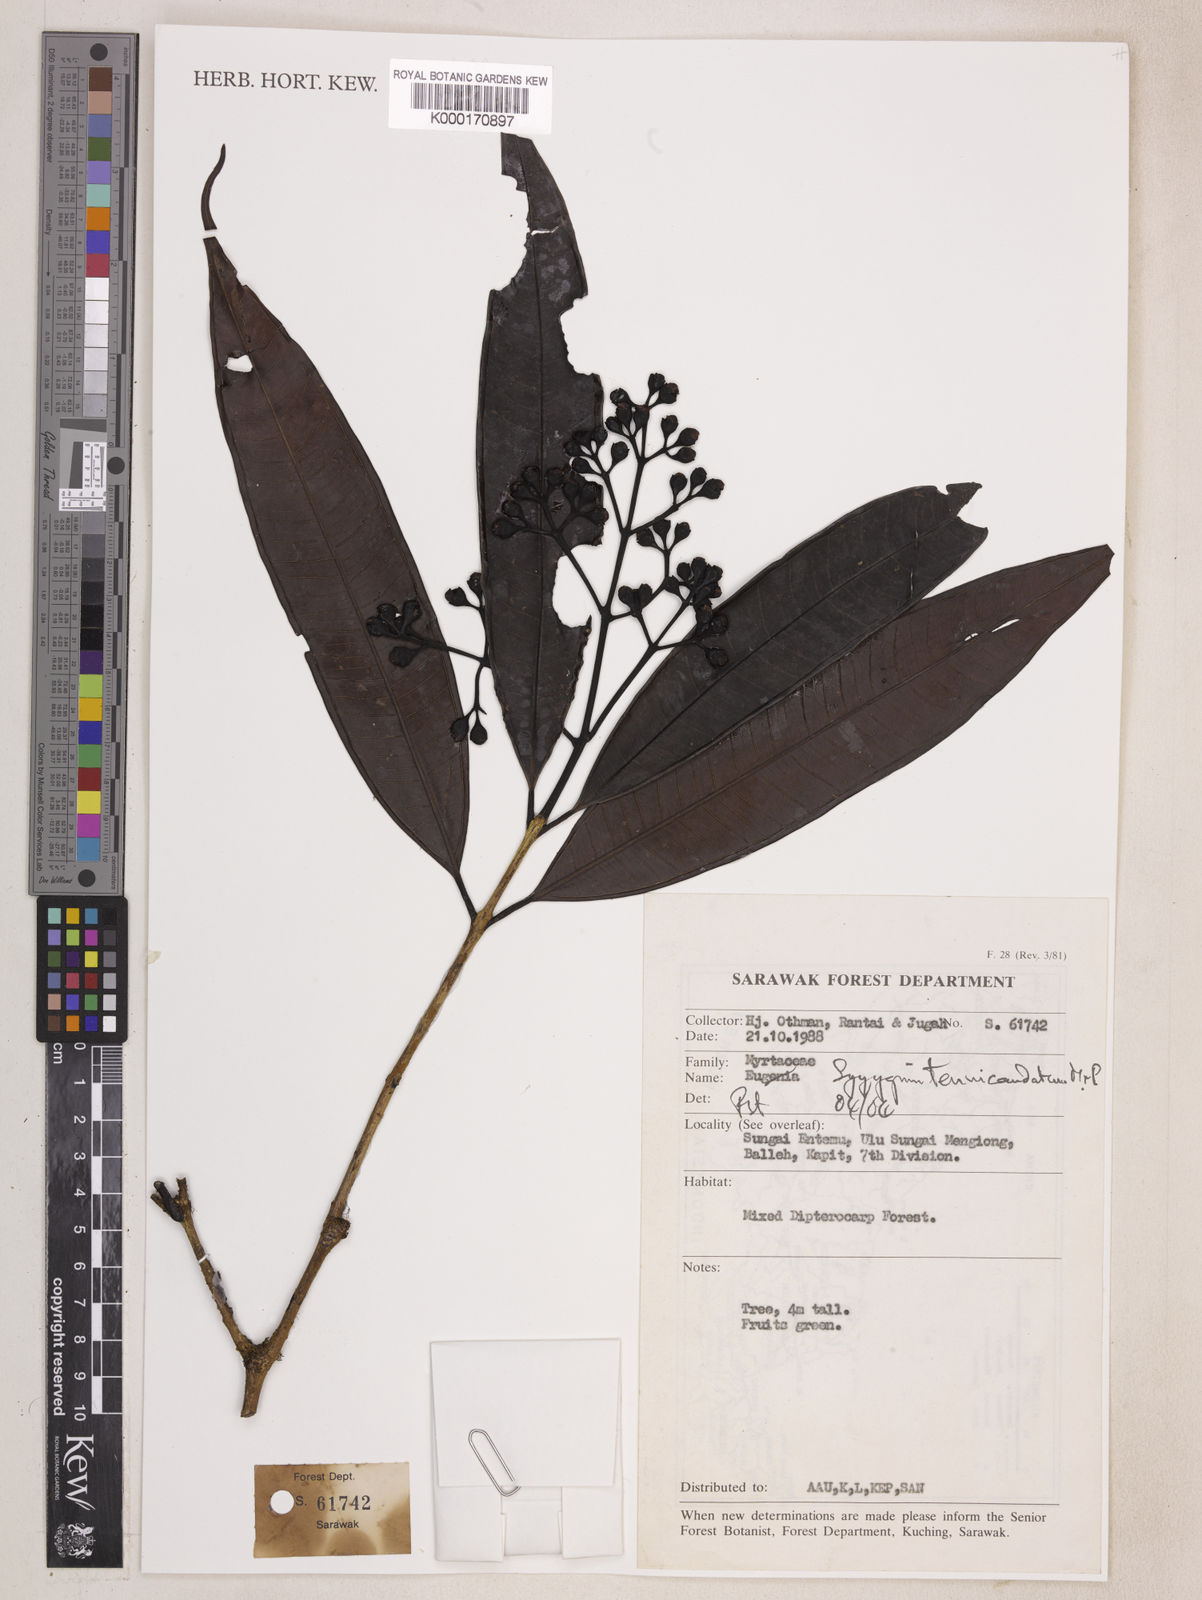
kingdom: Plantae
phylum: Tracheophyta
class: Magnoliopsida
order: Myrtales
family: Myrtaceae
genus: Syzygium
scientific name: Syzygium tenuicaudatum
